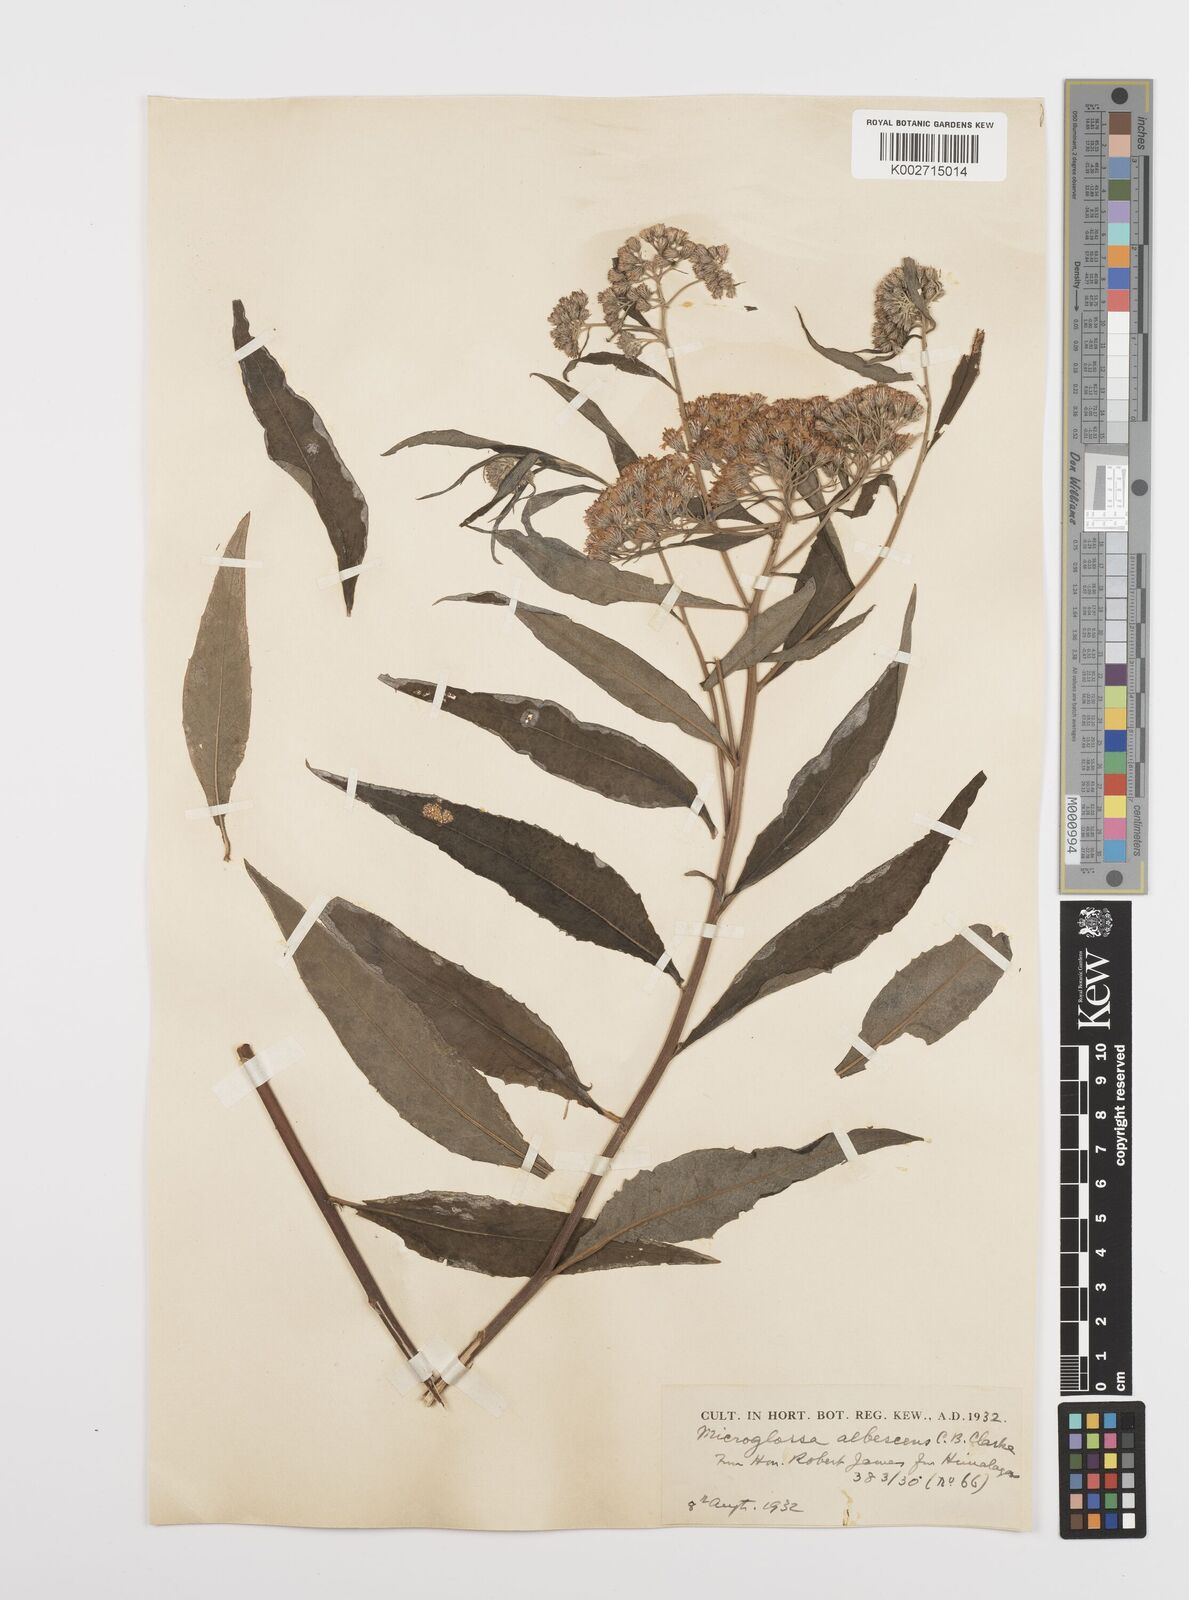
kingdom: Plantae
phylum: Tracheophyta
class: Magnoliopsida
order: Asterales
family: Asteraceae
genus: Sinosidus
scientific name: Sinosidus albescens
